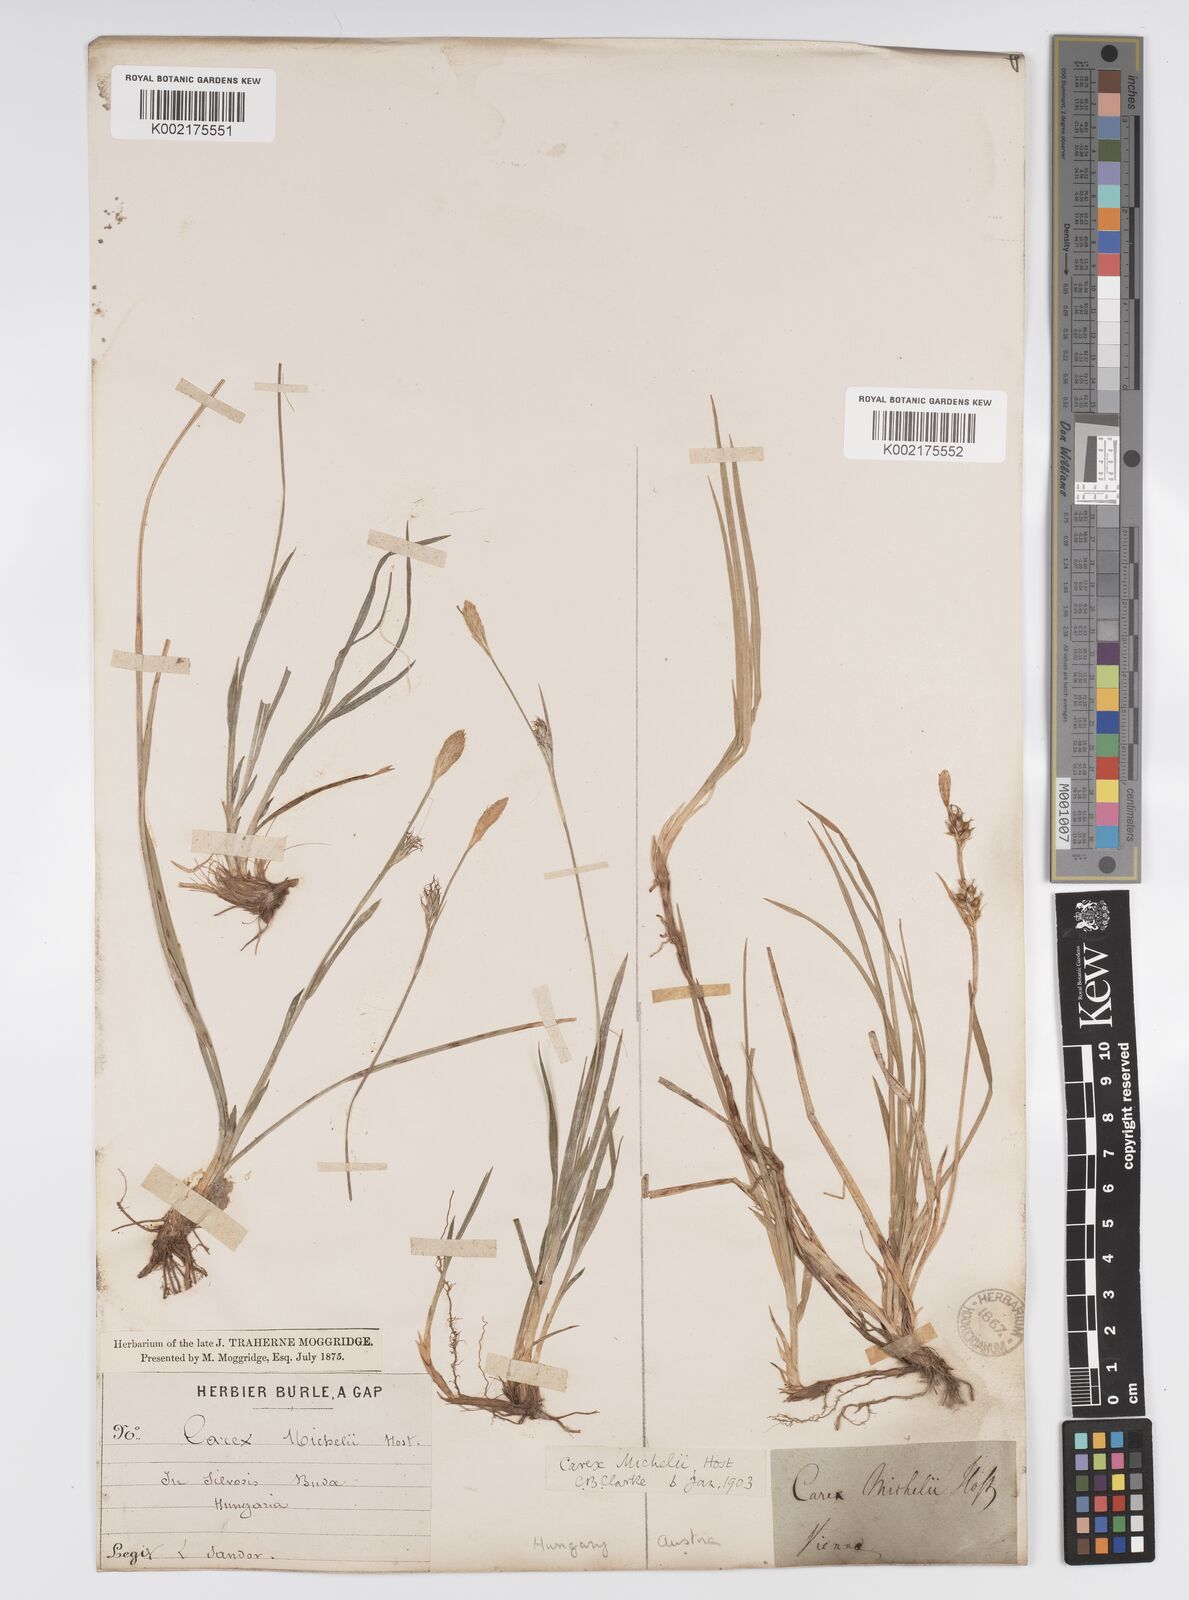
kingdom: Plantae
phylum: Tracheophyta
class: Liliopsida
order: Poales
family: Cyperaceae
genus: Carex
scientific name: Carex michelii
